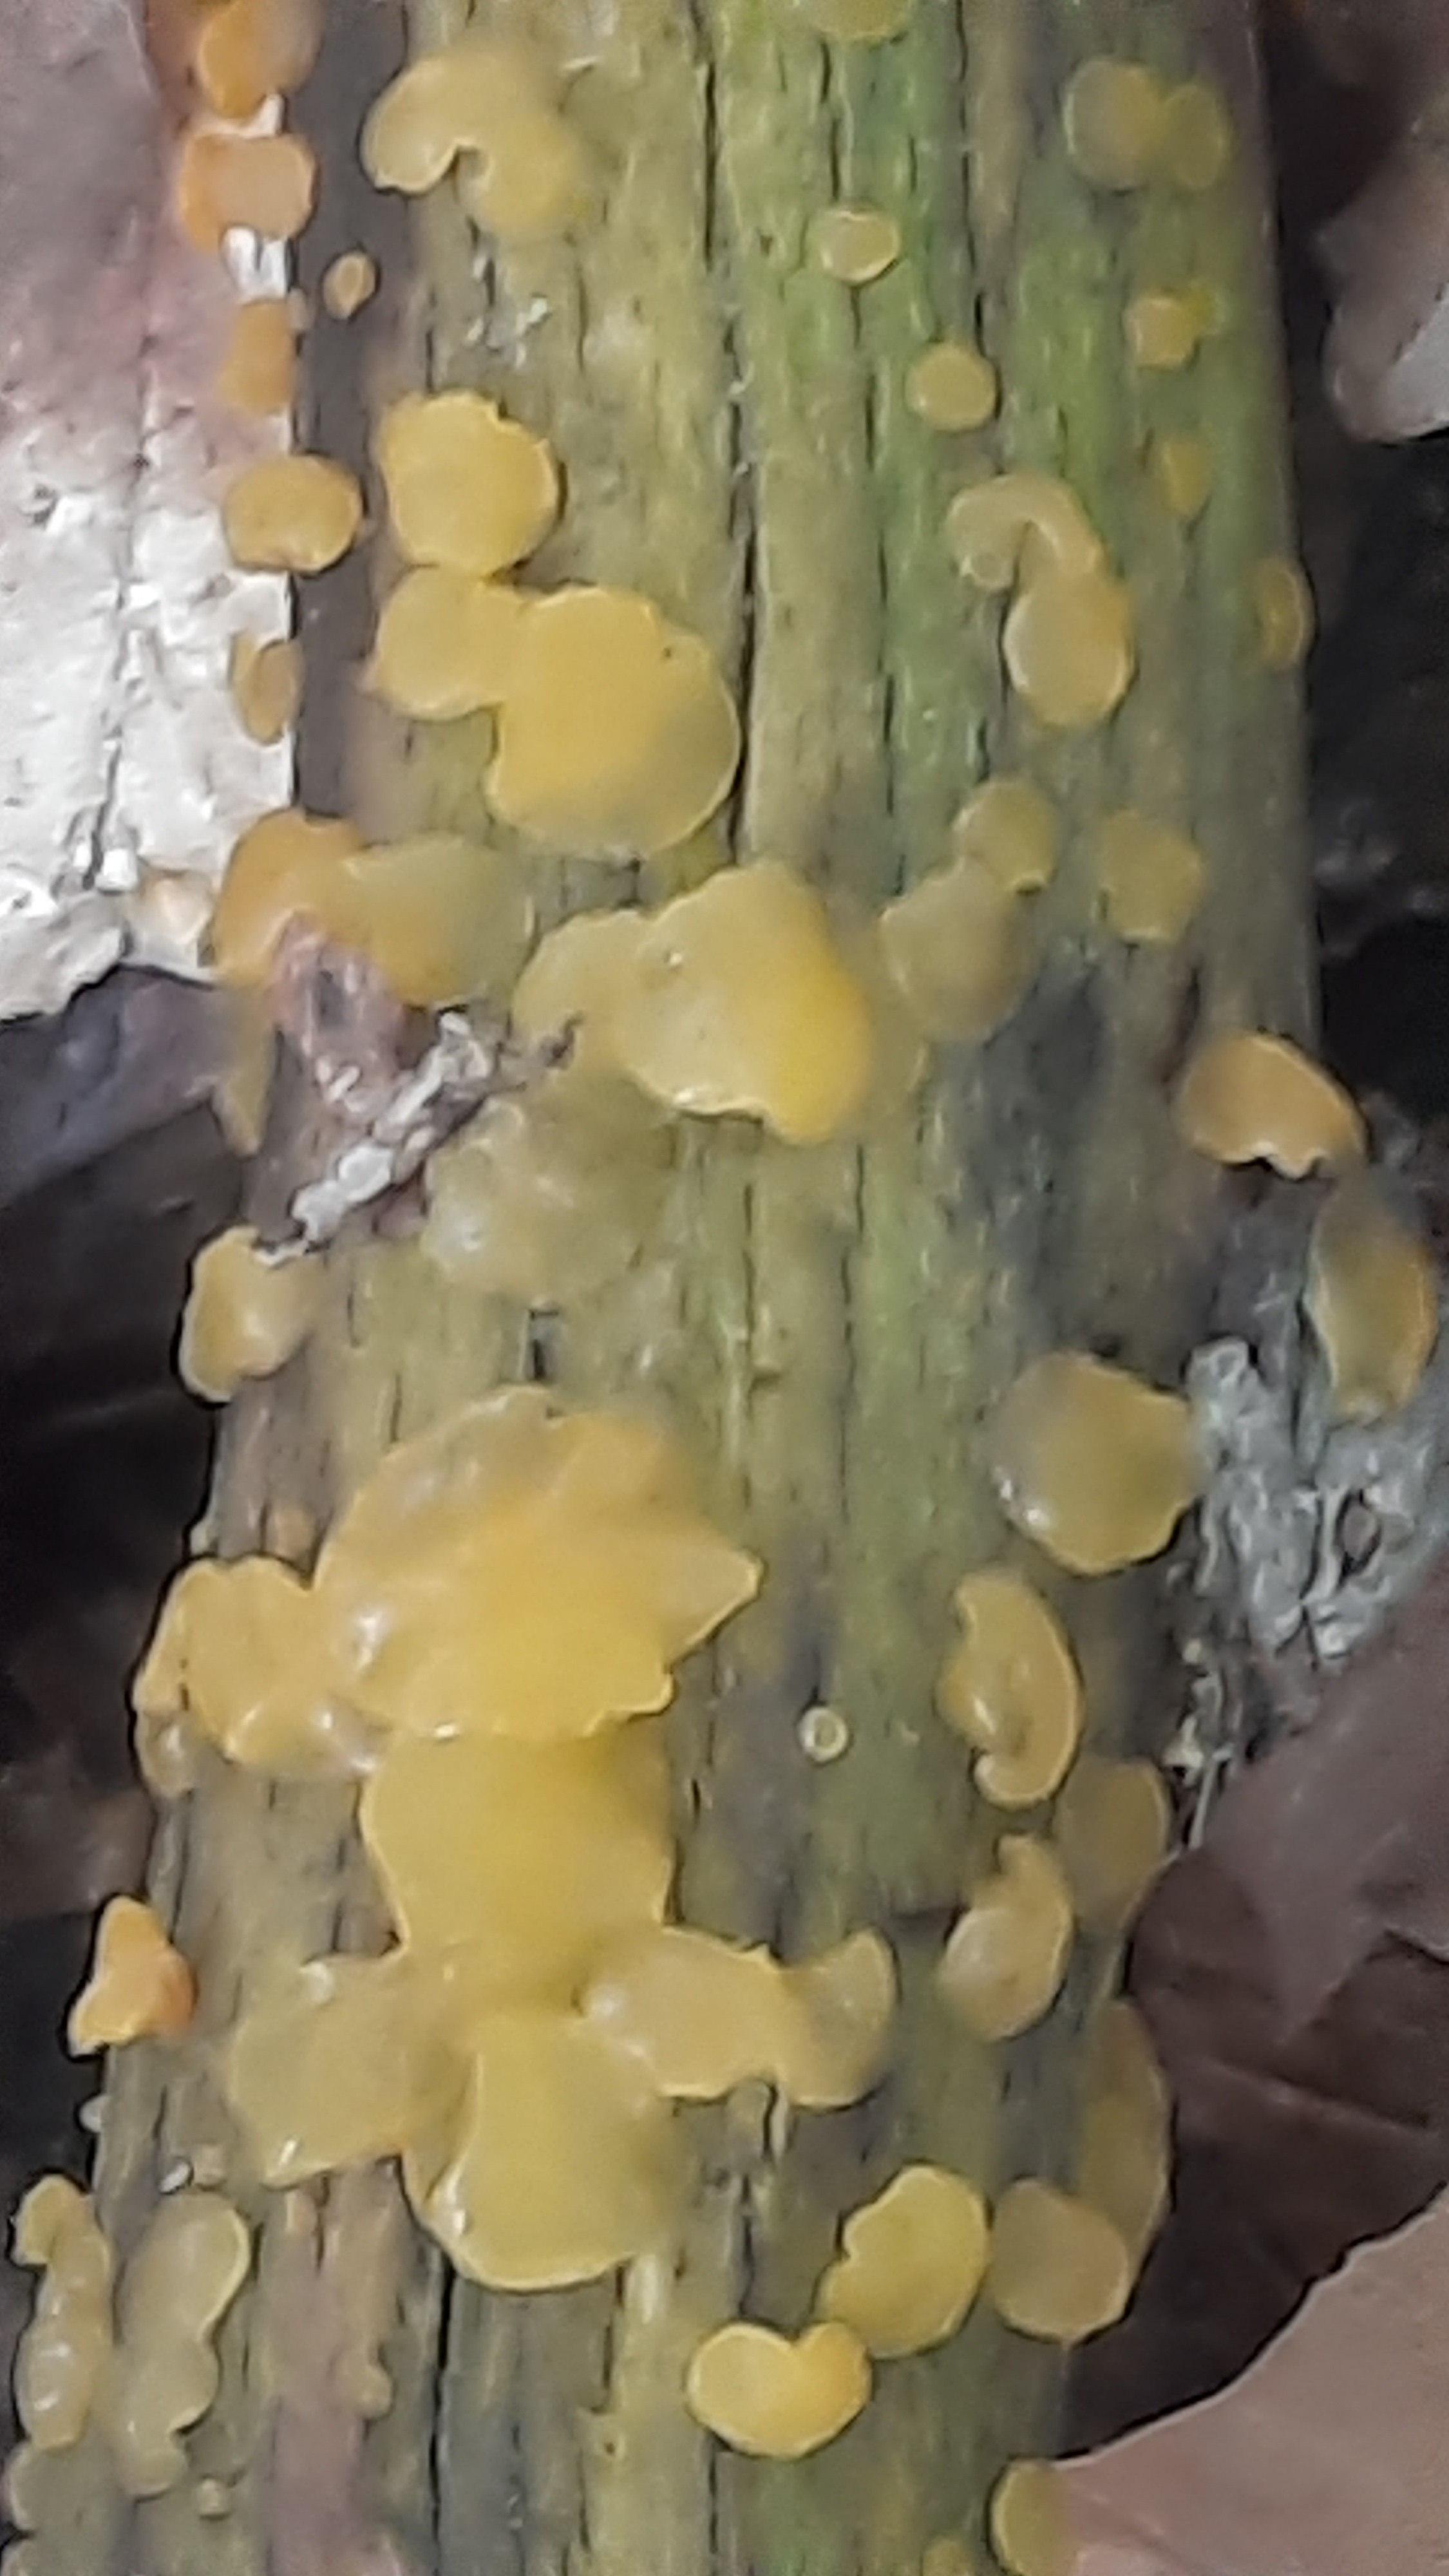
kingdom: Fungi
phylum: Basidiomycota
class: Dacrymycetes
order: Dacrymycetales
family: Dacrymycetaceae
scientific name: Dacrymycetaceae
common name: tåresvampfamilien
